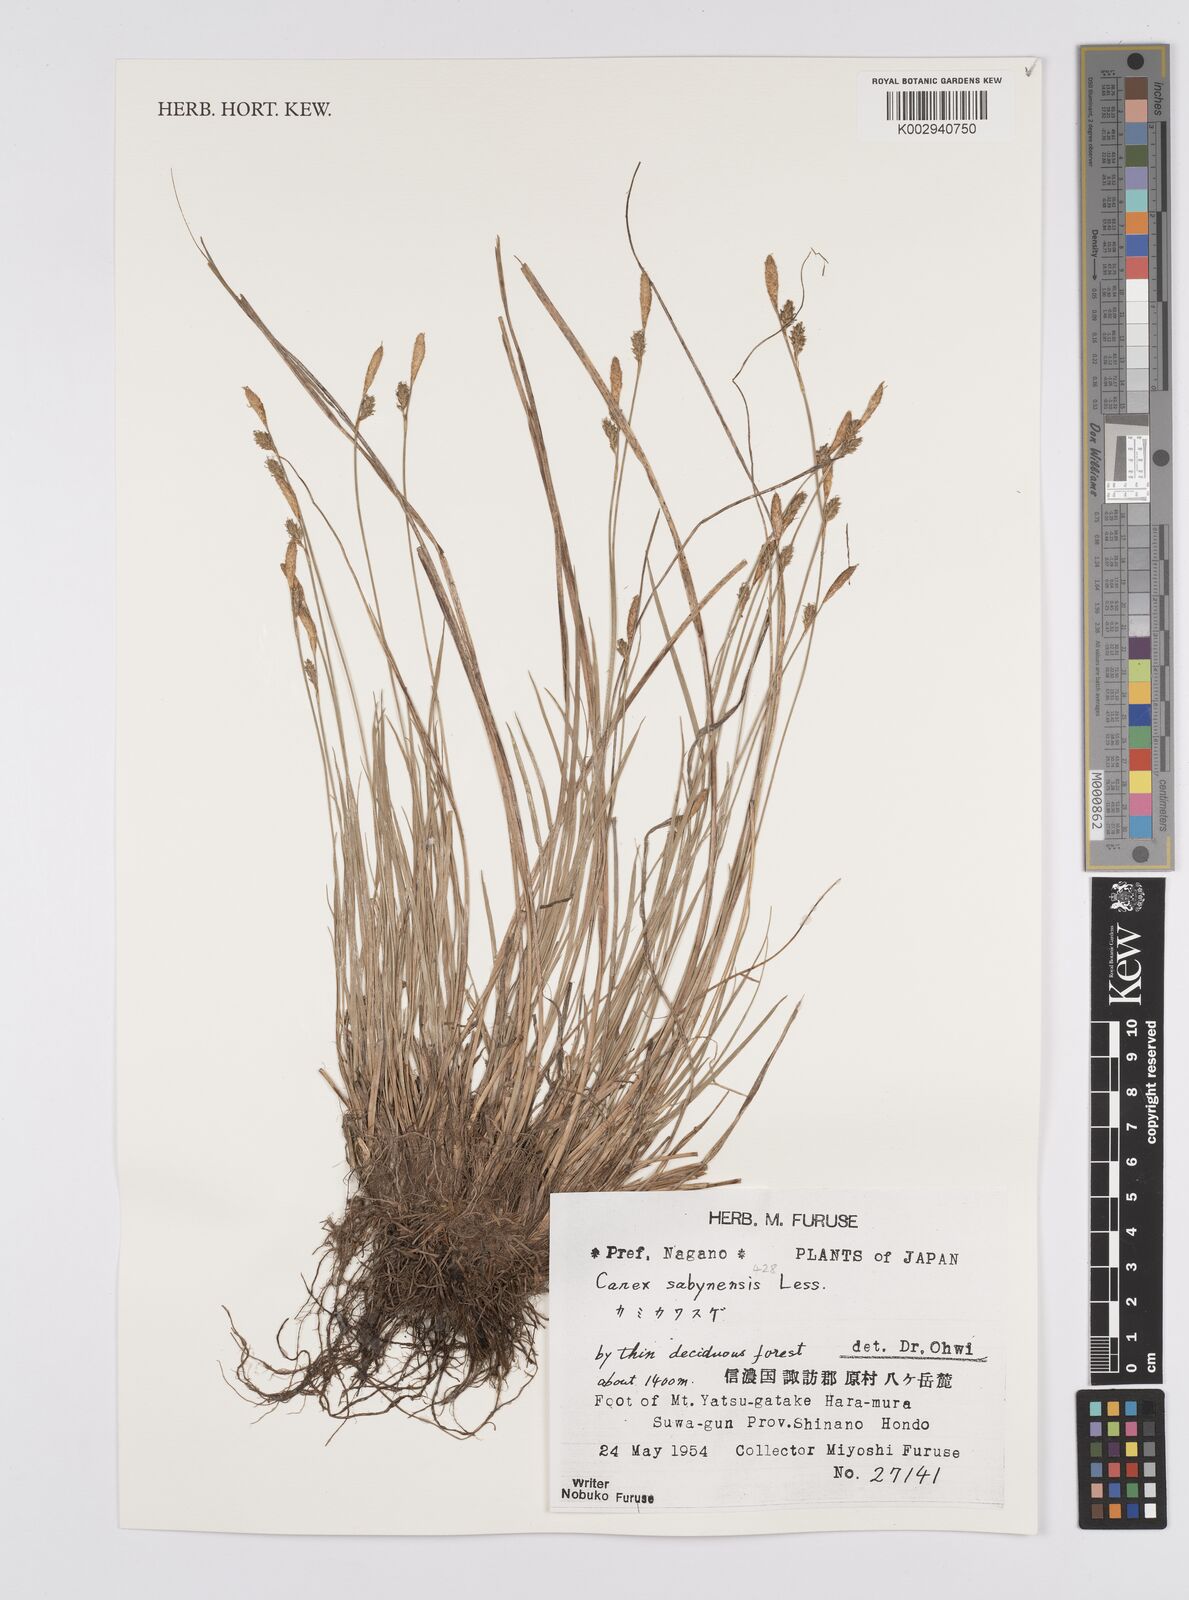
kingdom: Plantae
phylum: Tracheophyta
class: Liliopsida
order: Poales
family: Cyperaceae
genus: Carex
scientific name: Carex umbrosa
